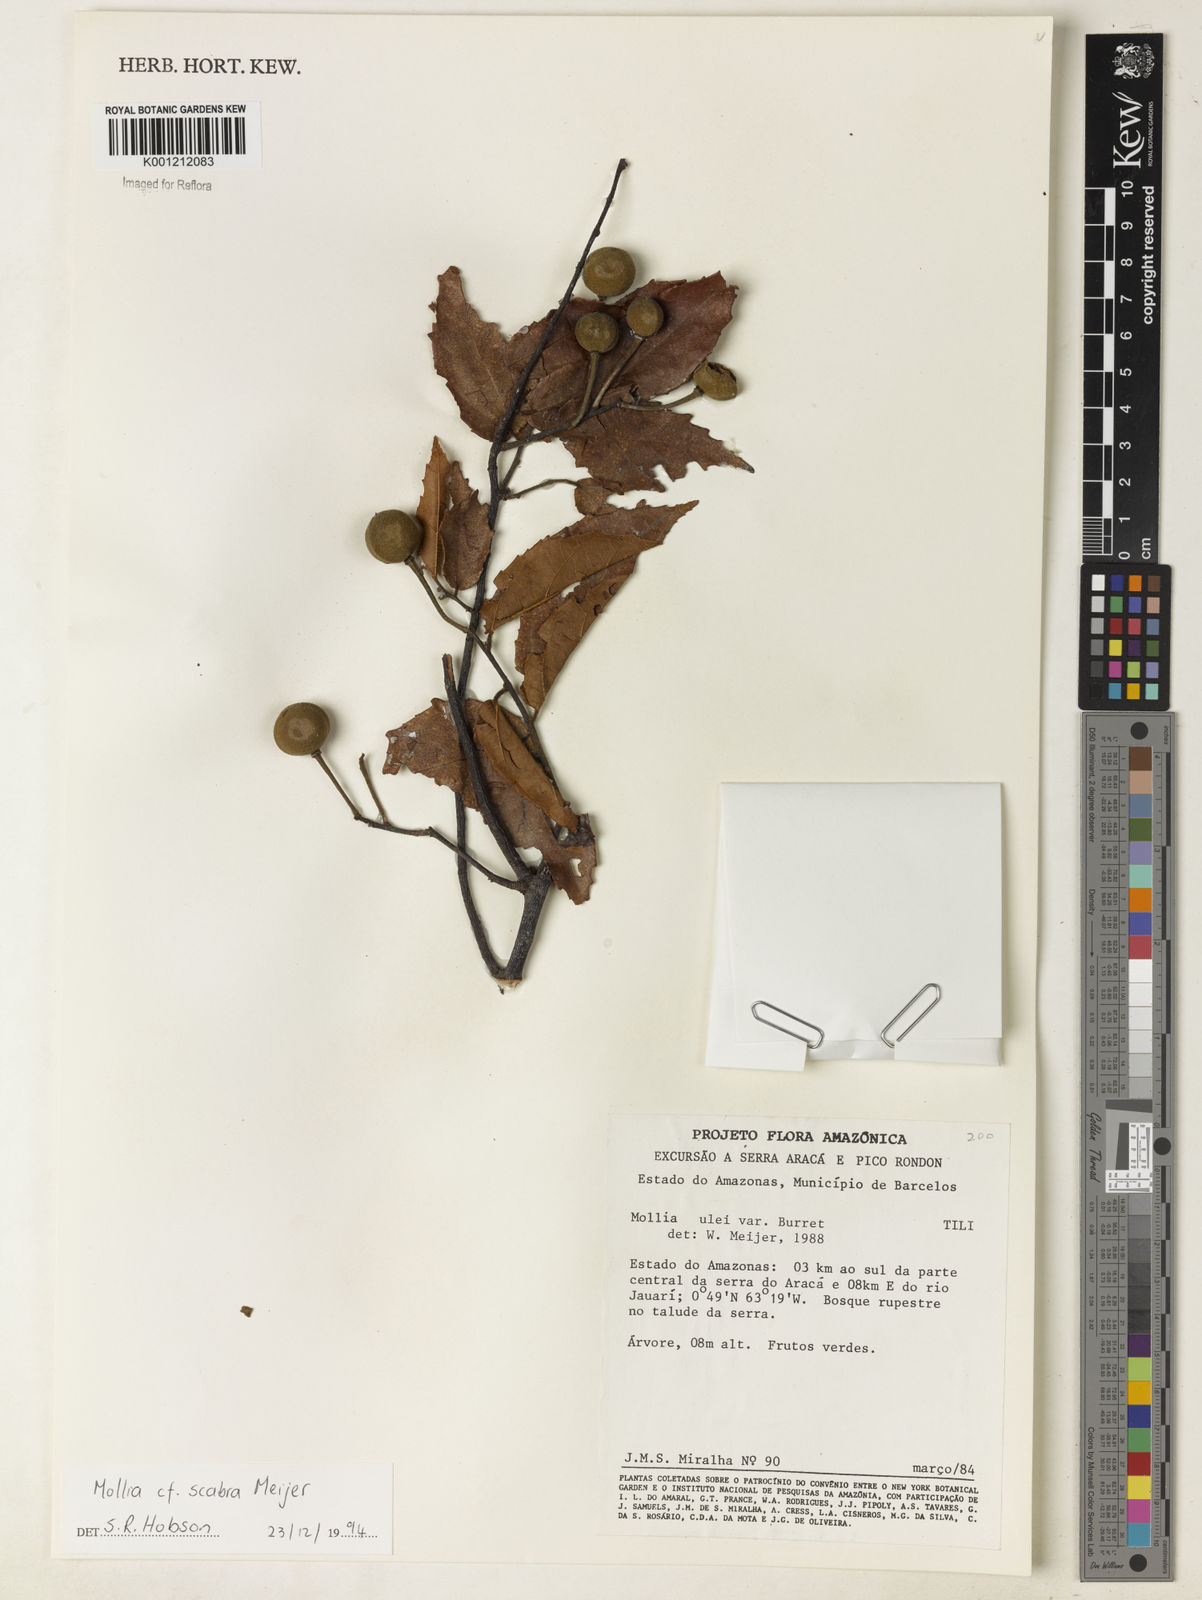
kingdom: Plantae
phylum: Tracheophyta
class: Magnoliopsida
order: Malvales
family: Malvaceae
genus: Mollia
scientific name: Mollia ulei
